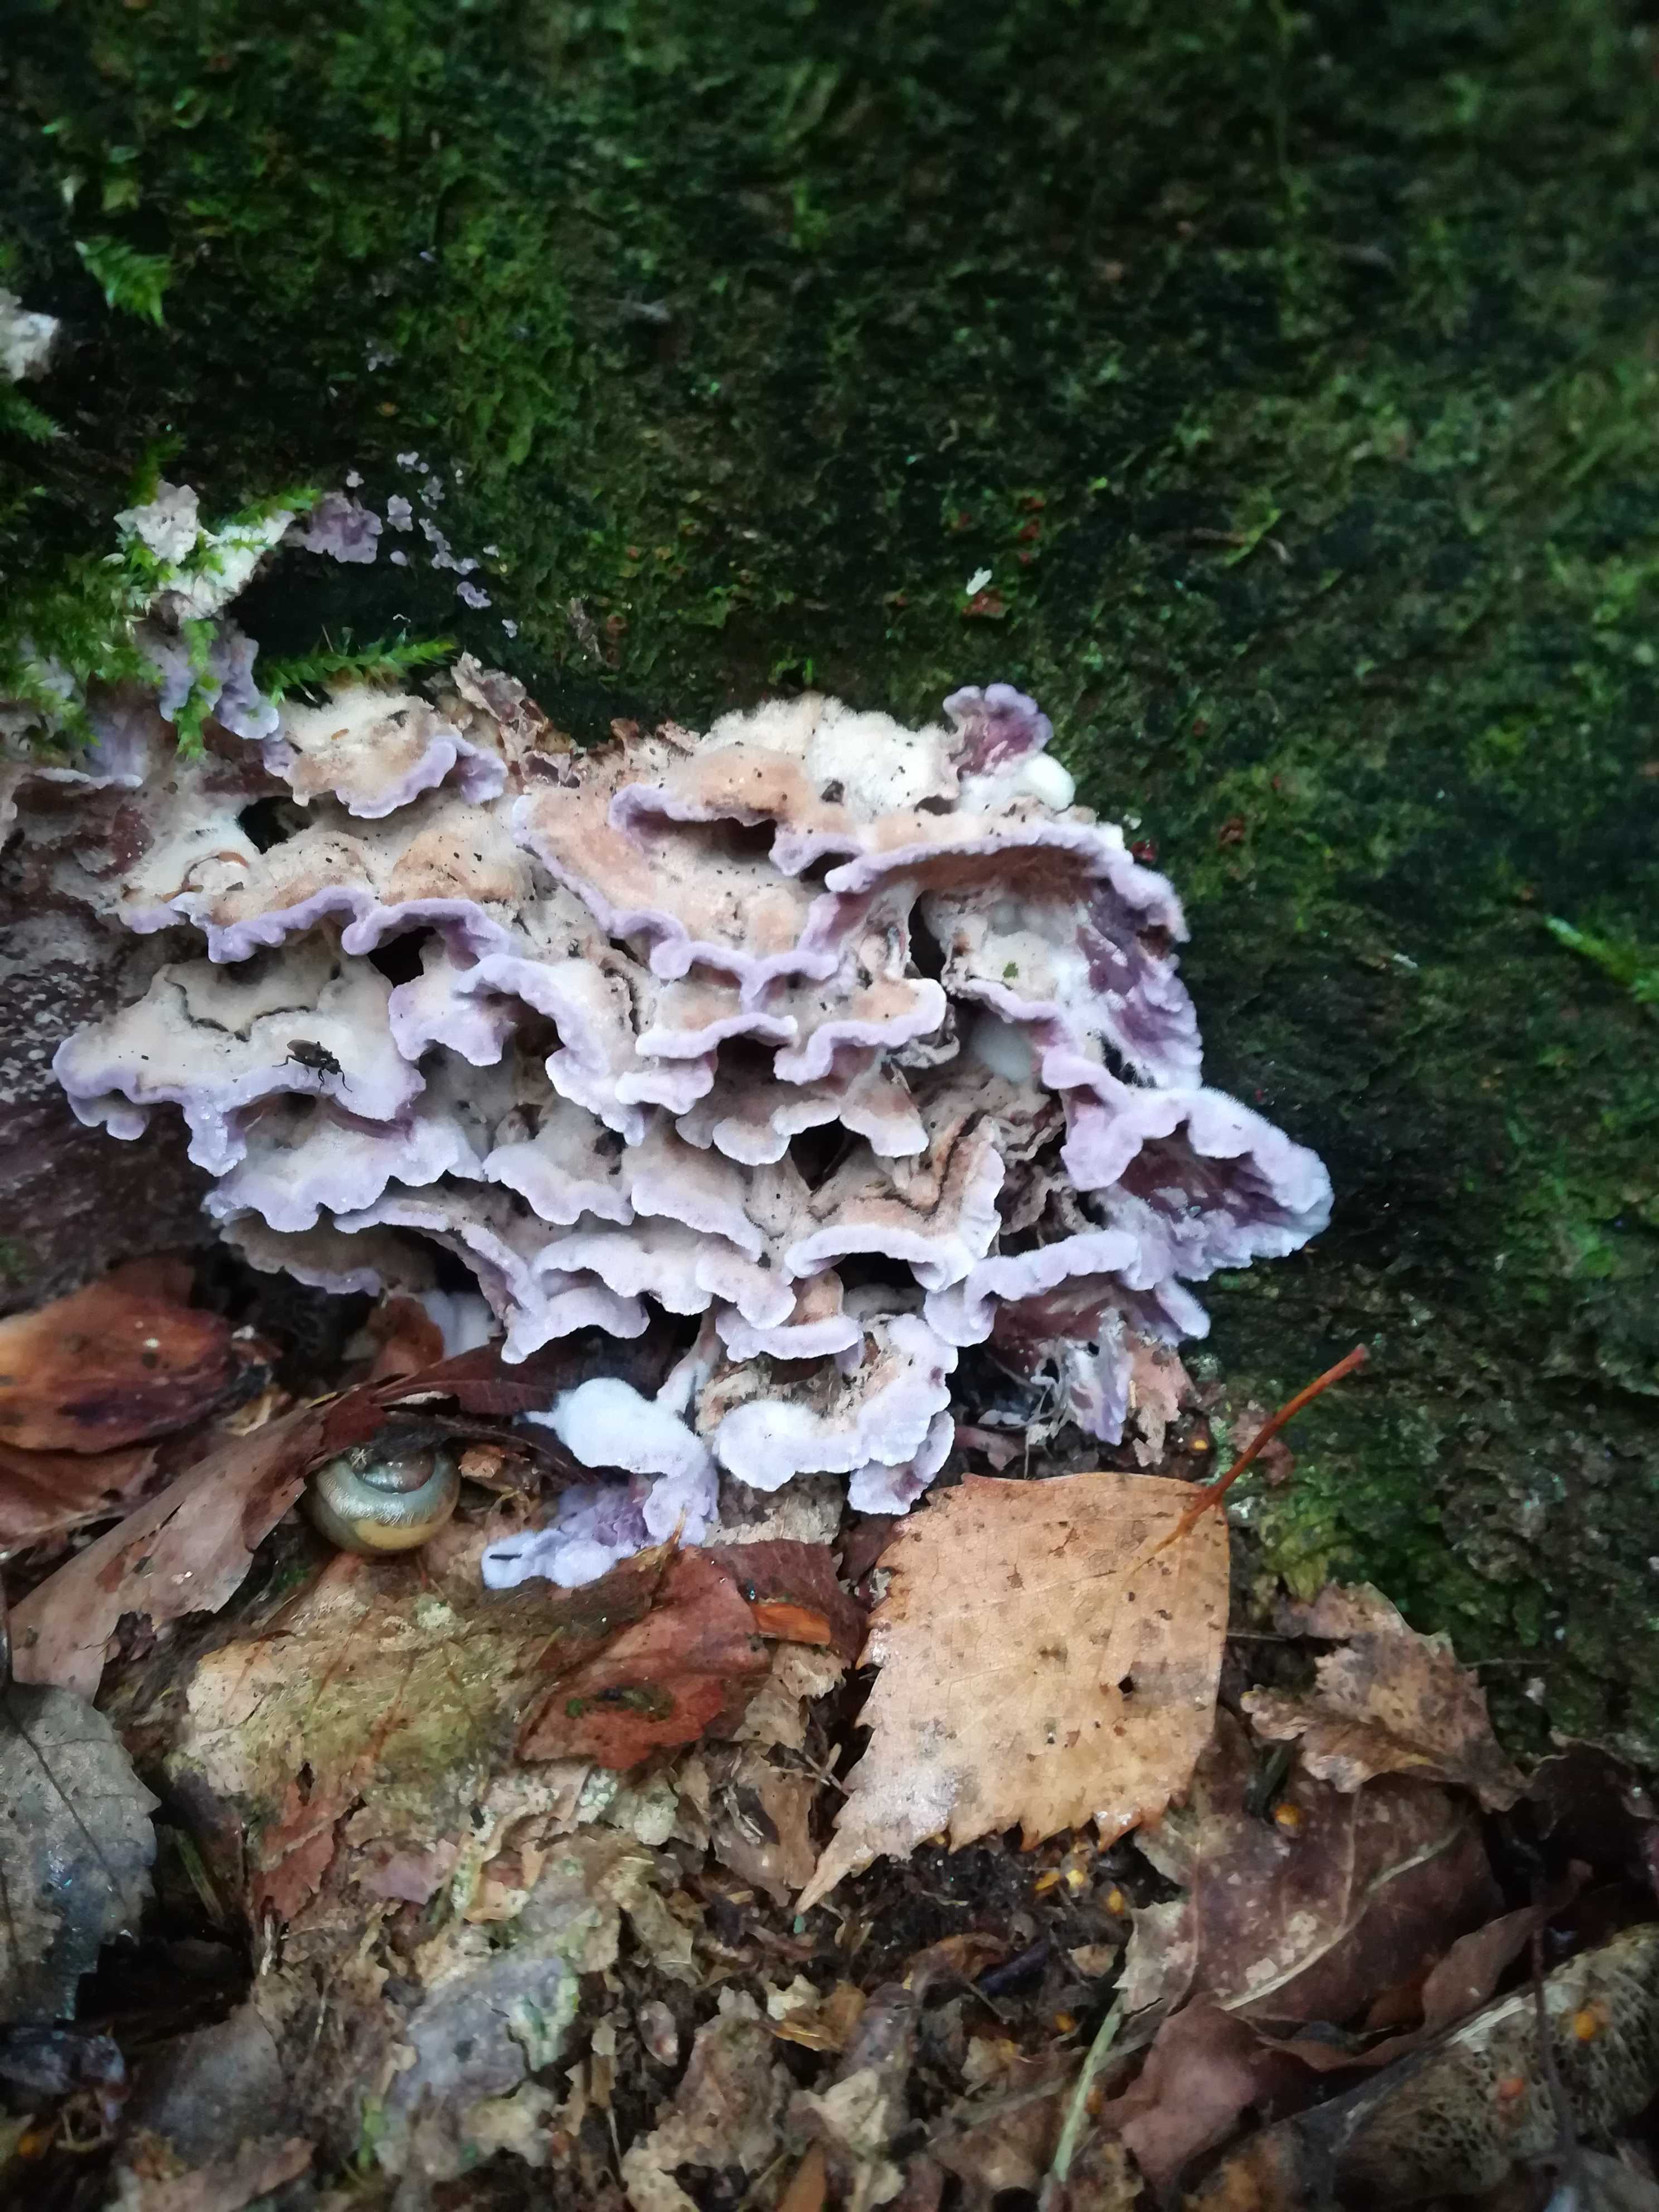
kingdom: Fungi
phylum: Basidiomycota
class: Agaricomycetes
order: Agaricales
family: Cyphellaceae
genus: Chondrostereum
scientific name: Chondrostereum purpureum
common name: purpurlædersvamp
